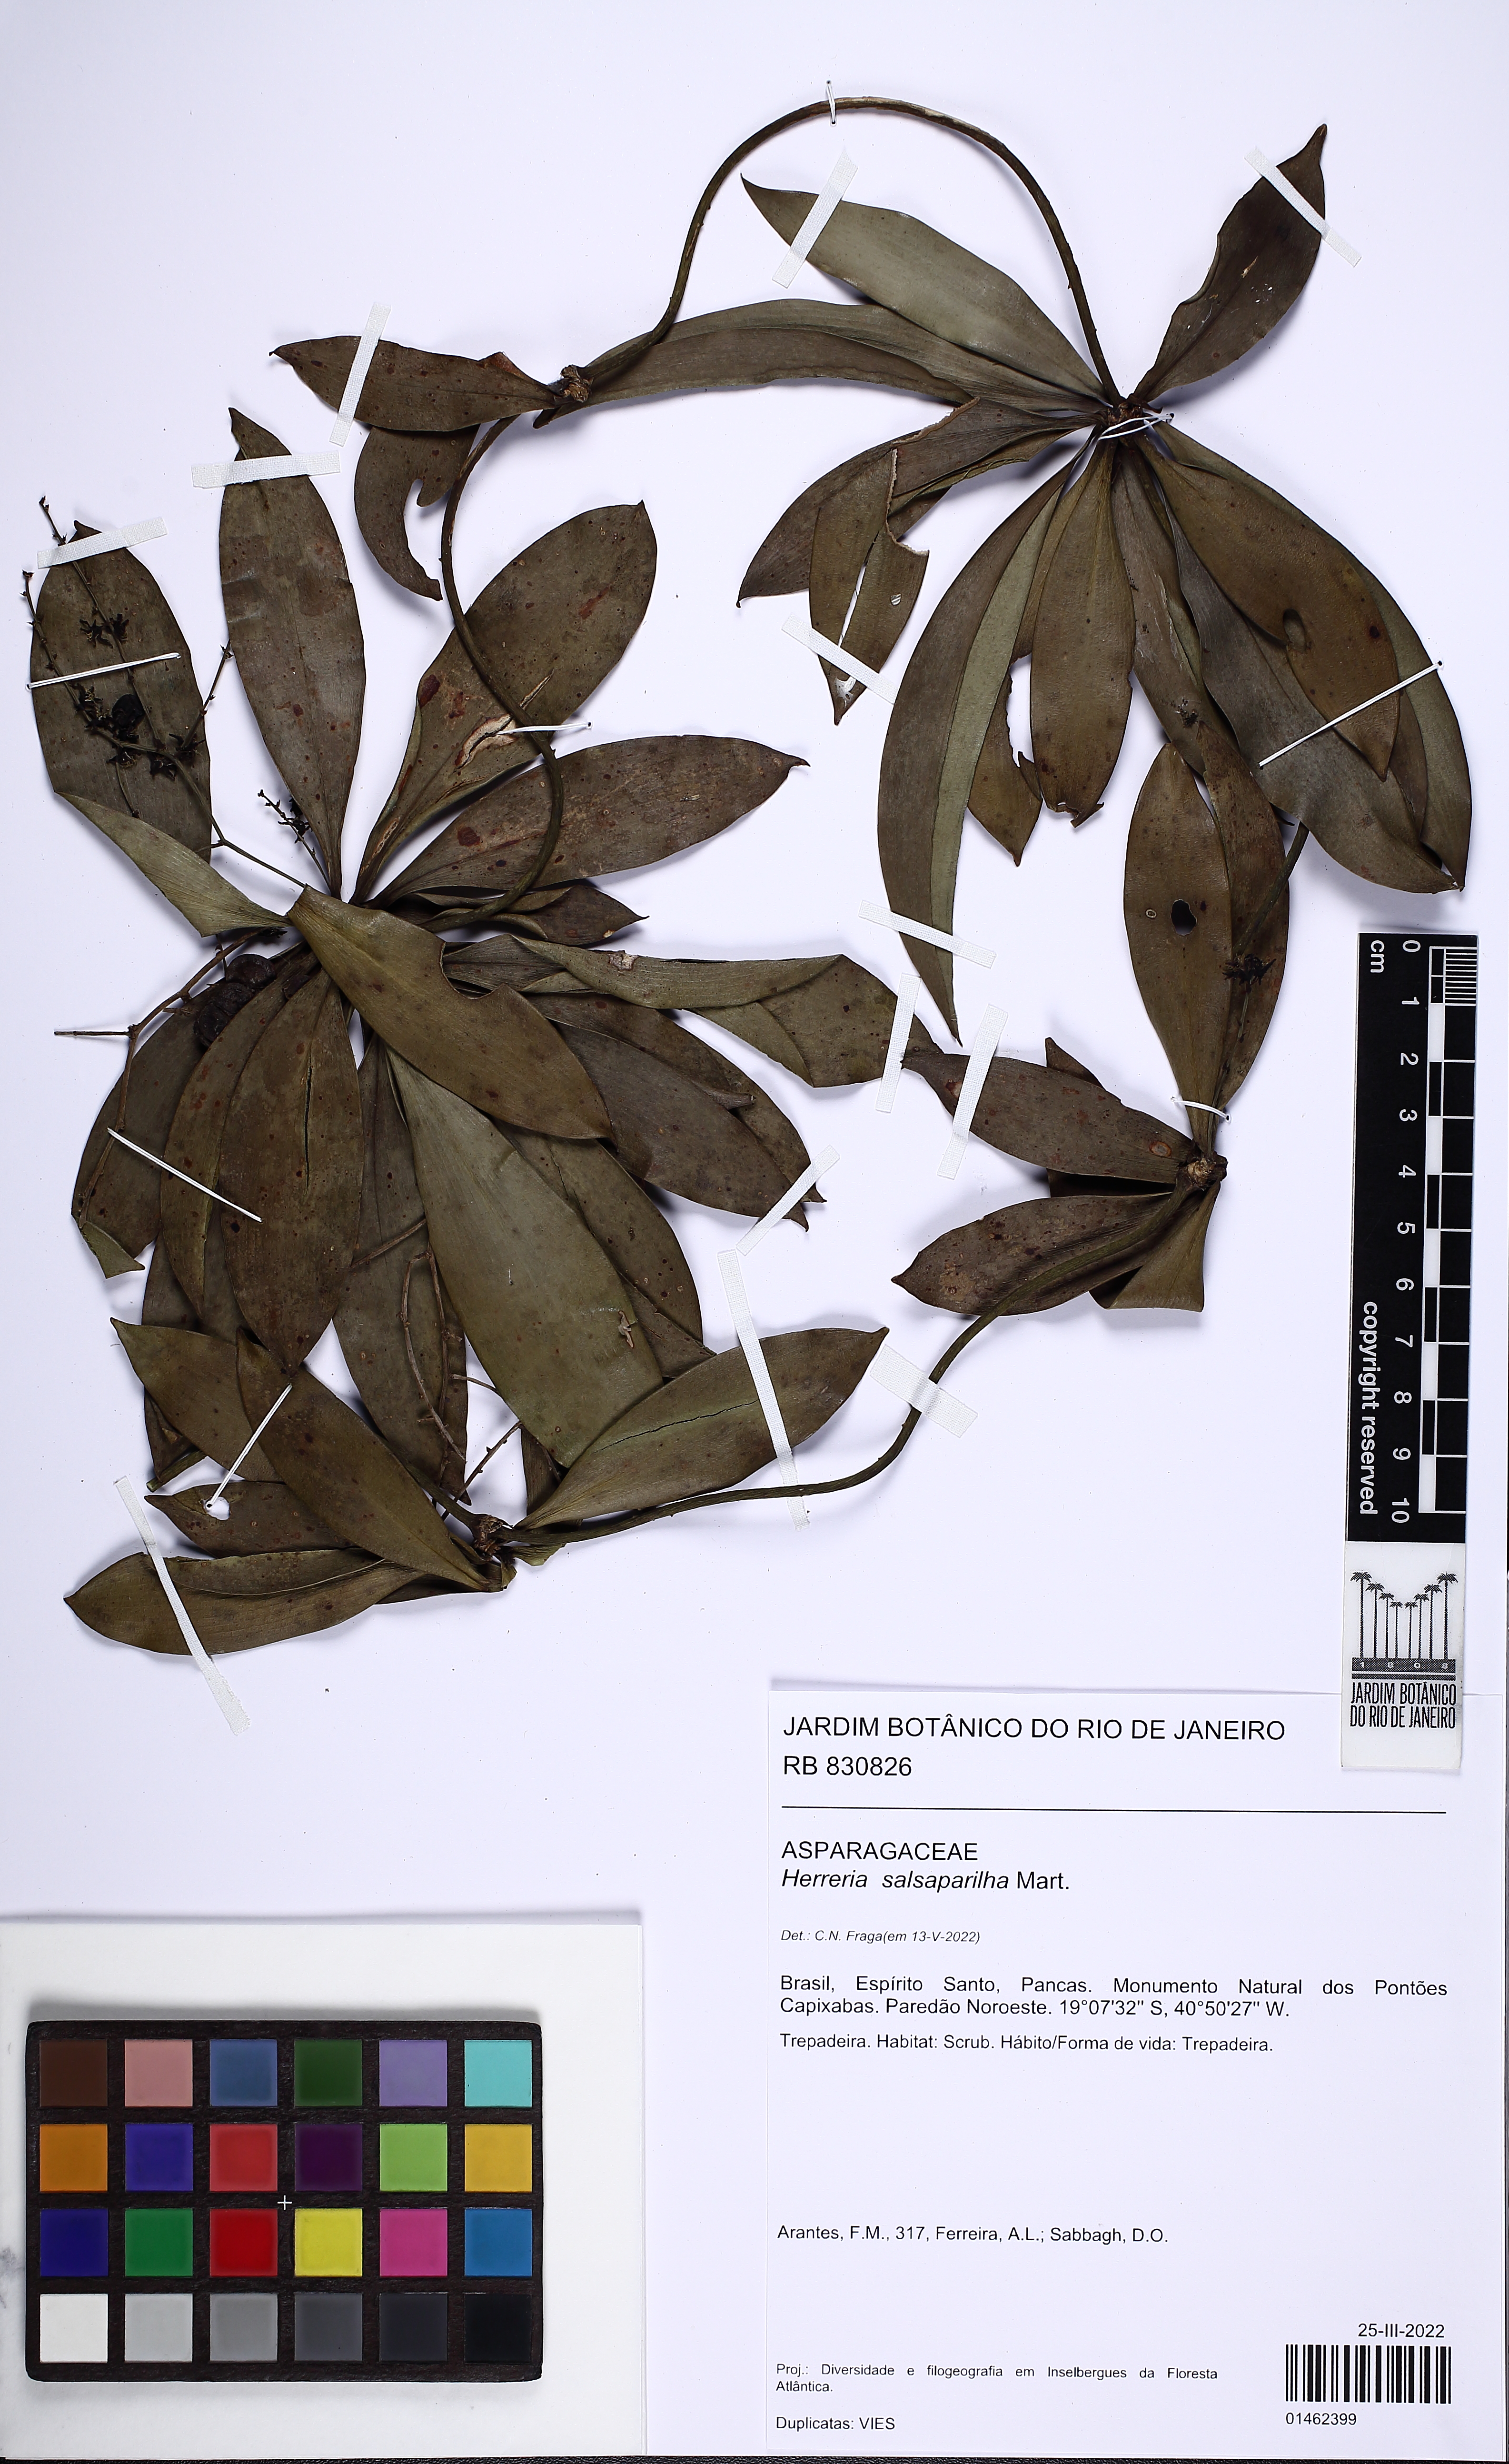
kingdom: Plantae
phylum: Tracheophyta
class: Liliopsida
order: Asparagales
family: Asparagaceae
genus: Herreria
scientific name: Herreria salsaparilha
